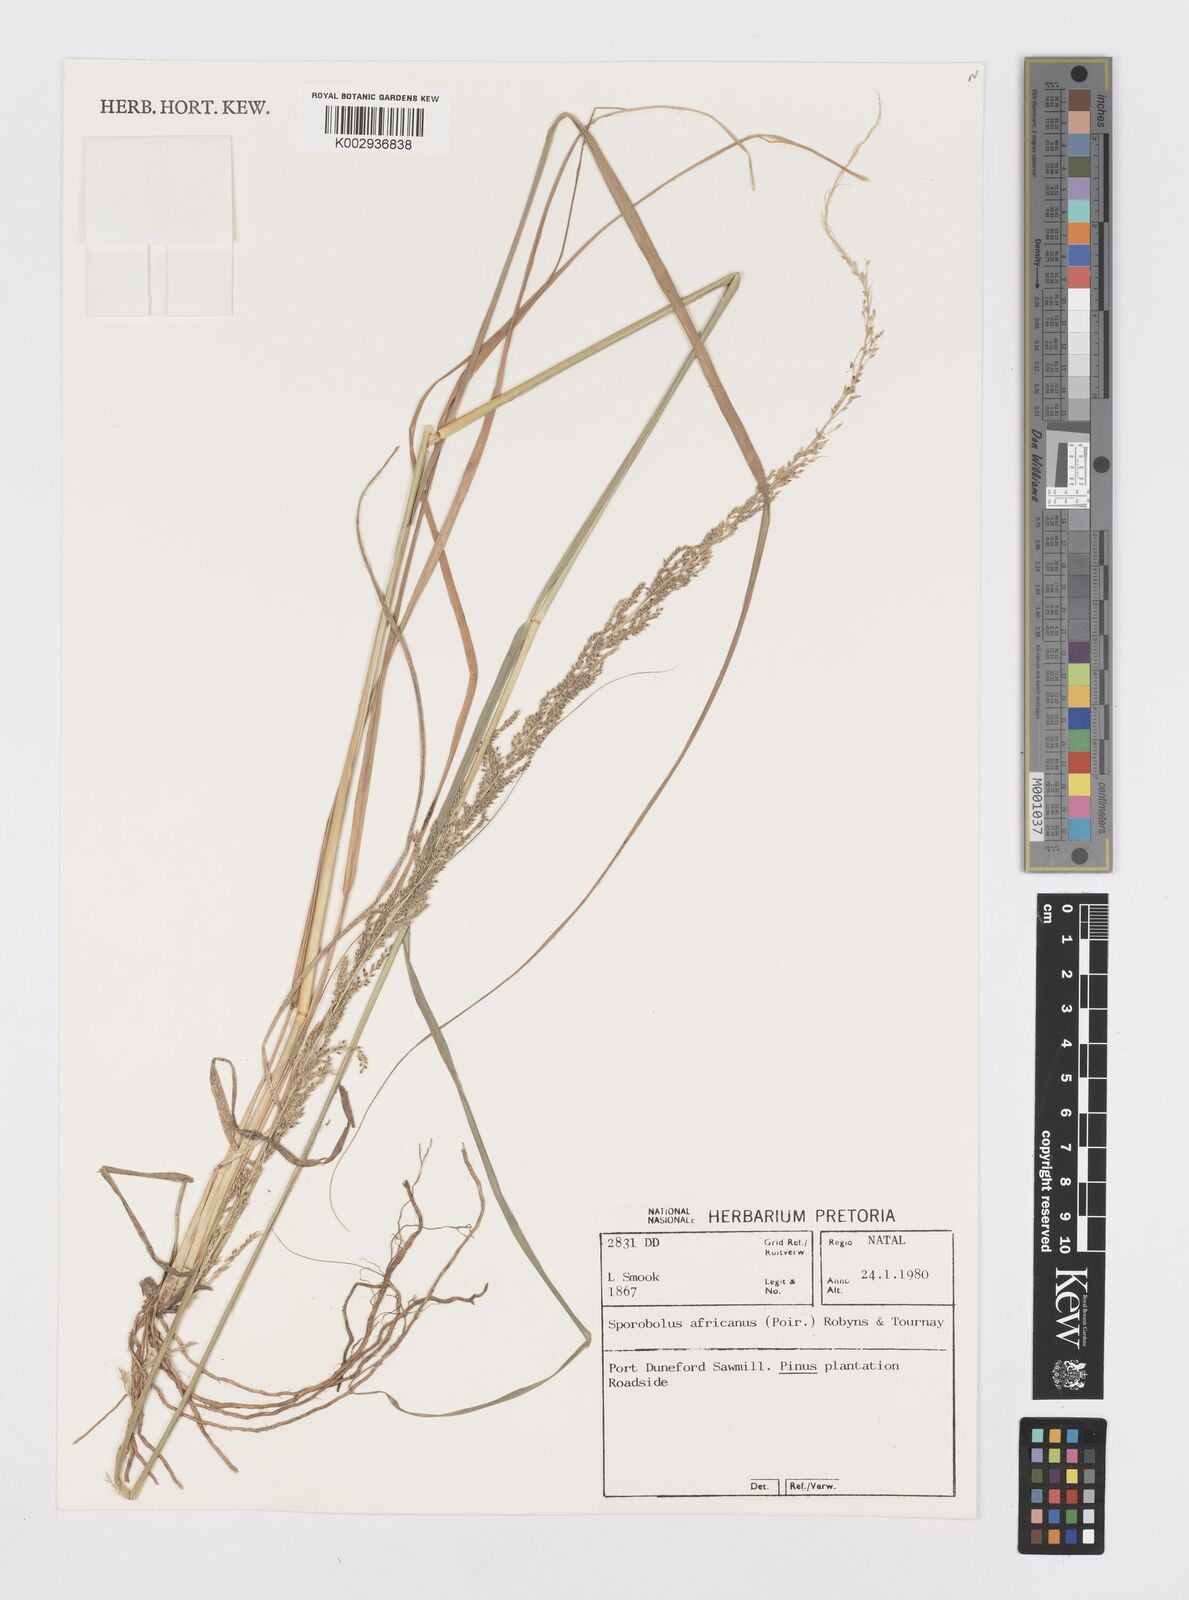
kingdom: Plantae
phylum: Tracheophyta
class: Liliopsida
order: Poales
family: Poaceae
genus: Sporobolus
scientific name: Sporobolus africanus
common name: African dropseed
